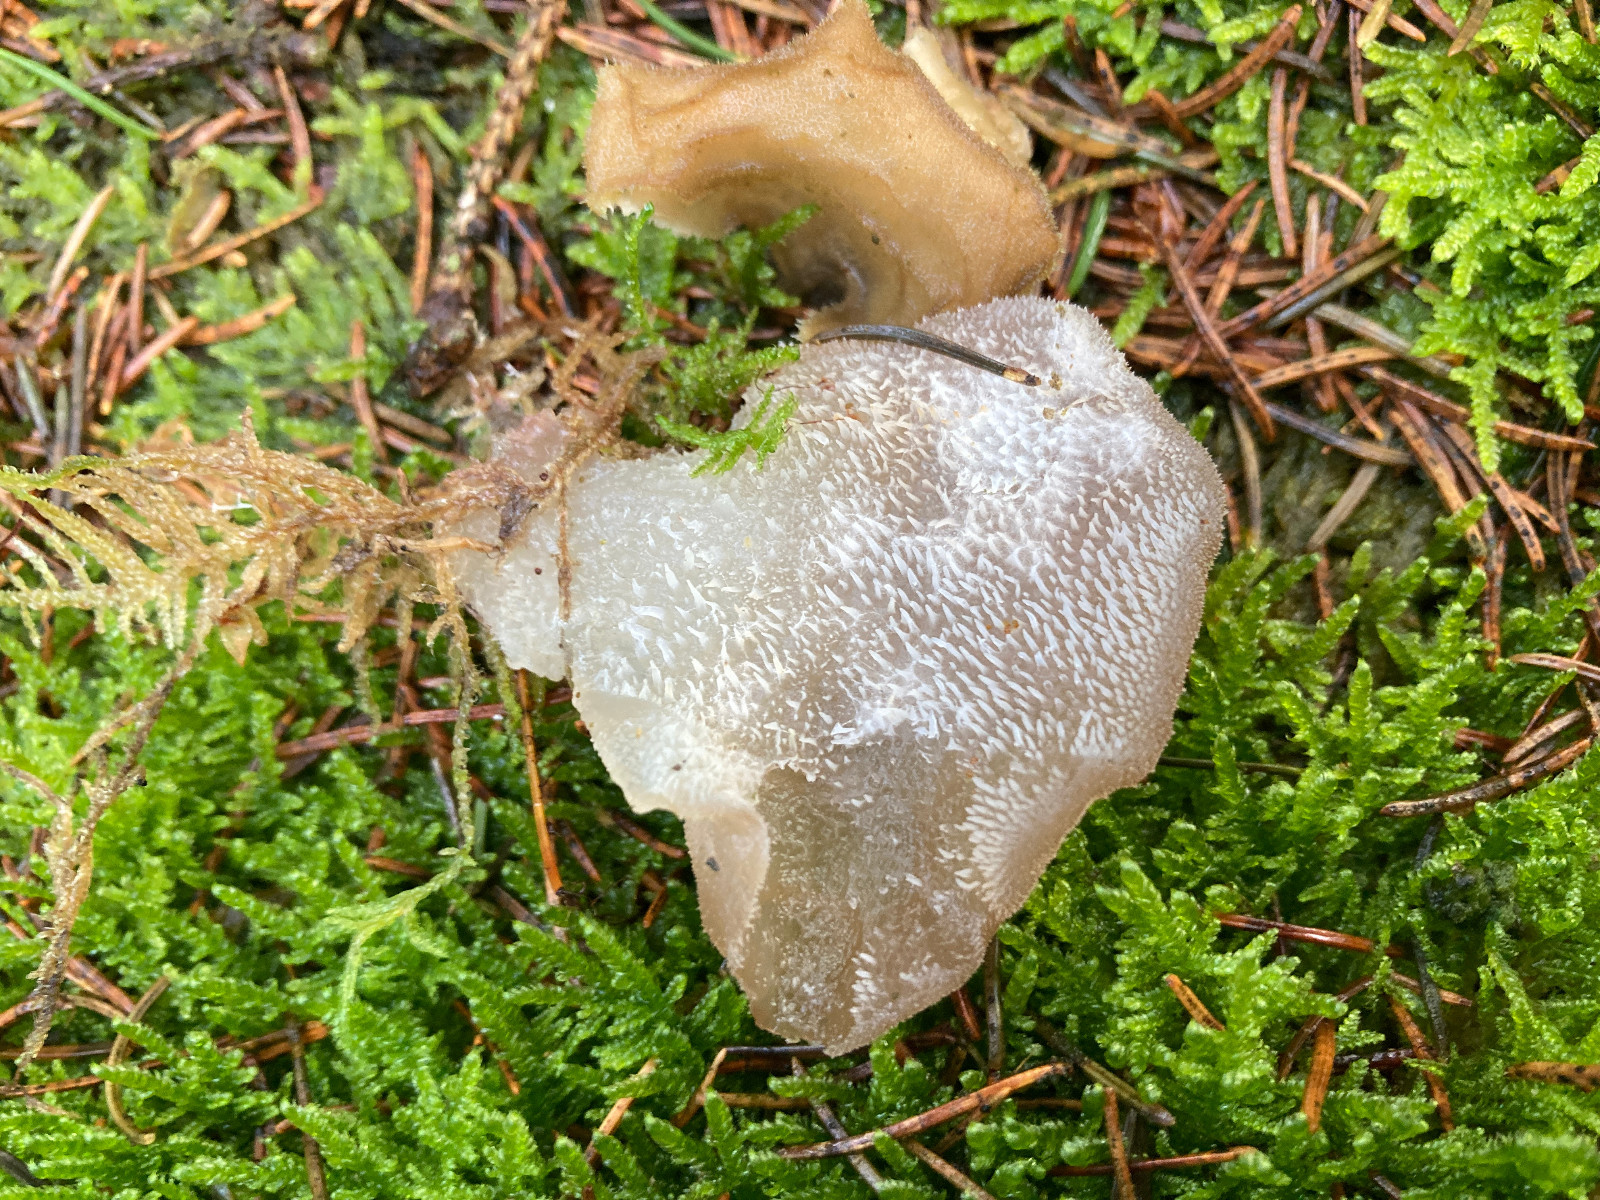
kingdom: Fungi
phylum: Basidiomycota
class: Agaricomycetes
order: Auriculariales
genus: Pseudohydnum
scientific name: Pseudohydnum gelatinosum
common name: bævretand
